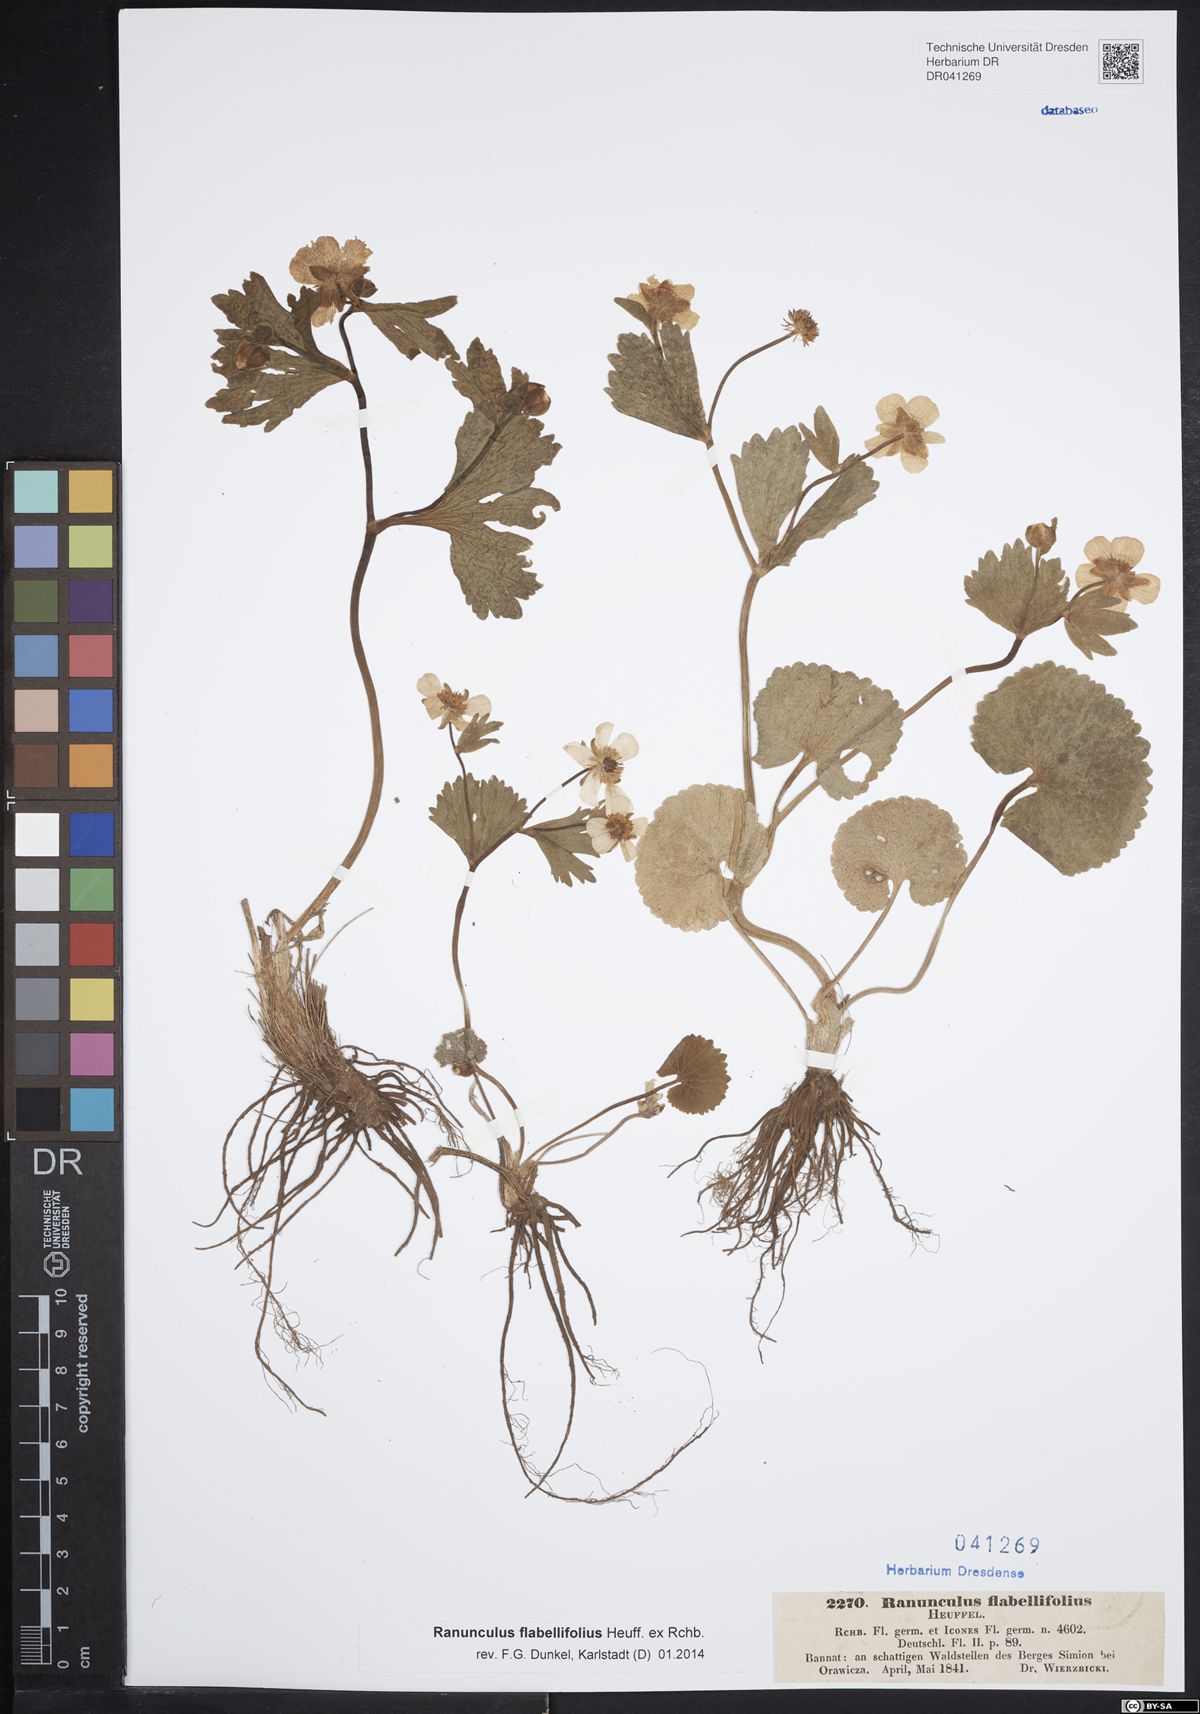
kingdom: Plantae
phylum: Tracheophyta
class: Magnoliopsida
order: Ranunculales
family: Ranunculaceae
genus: Ranunculus
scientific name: Ranunculus flabellifolius
